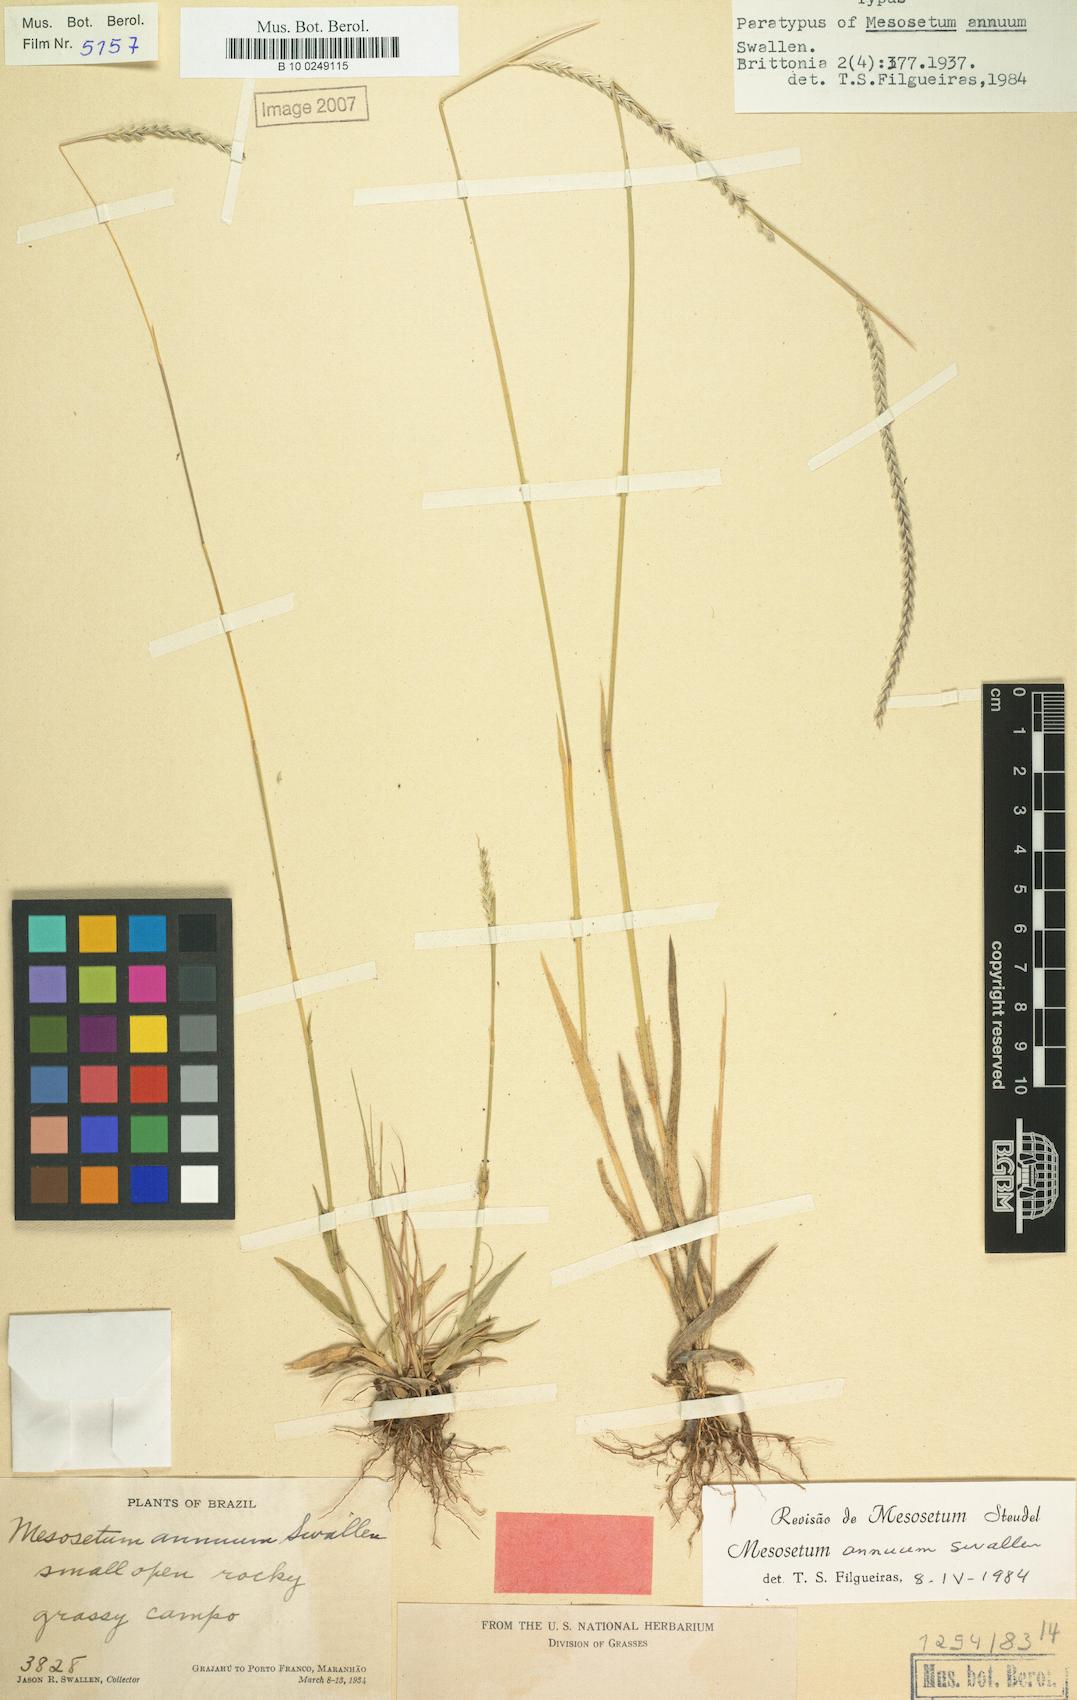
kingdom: Plantae
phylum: Tracheophyta
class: Liliopsida
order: Poales
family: Poaceae
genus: Mesosetum
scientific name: Mesosetum annuum
